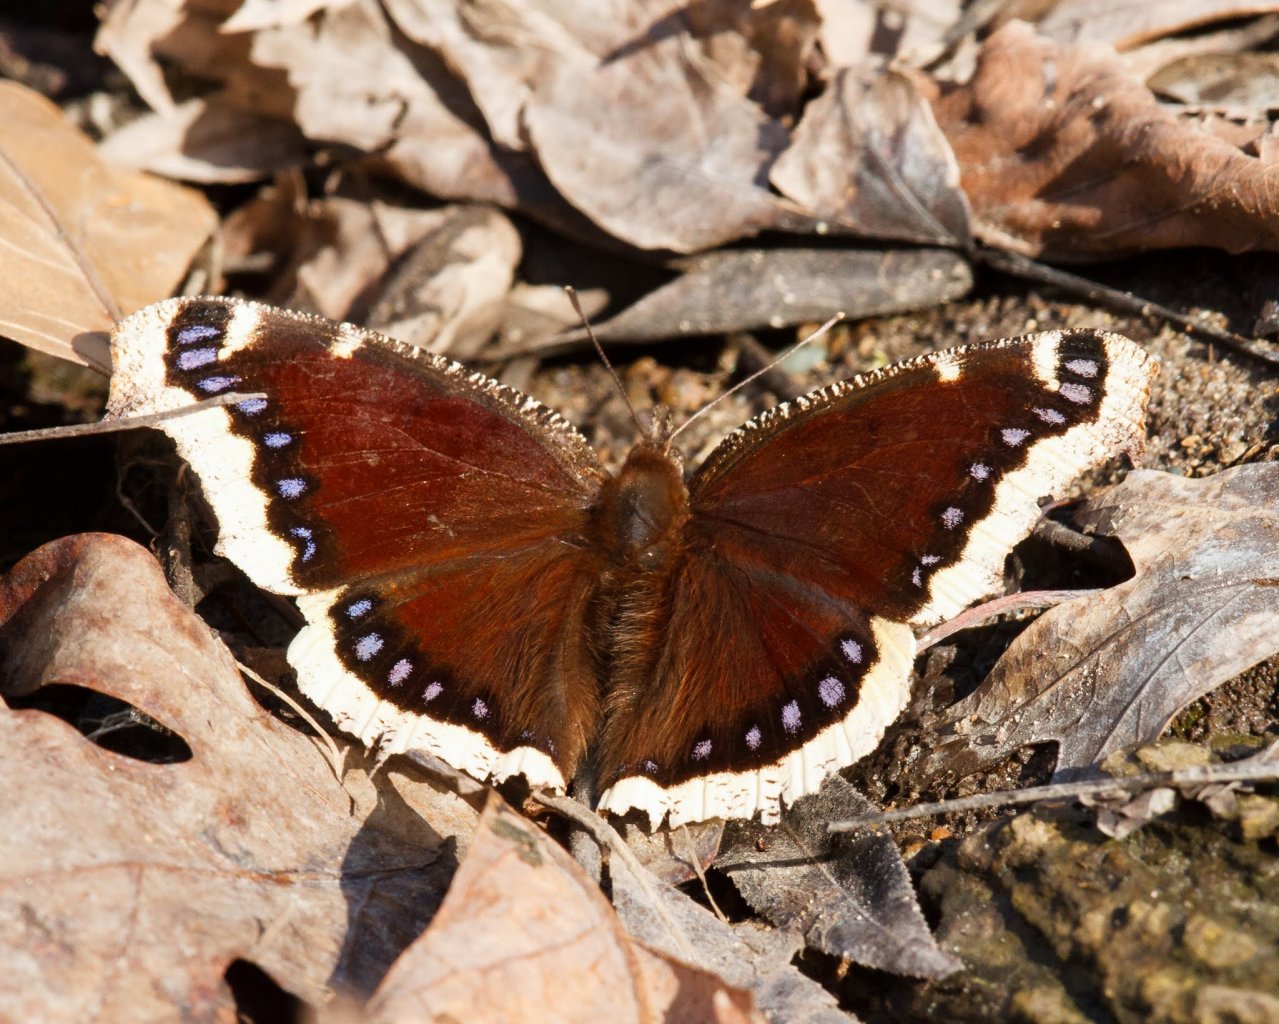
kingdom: Animalia
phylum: Arthropoda
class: Insecta
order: Lepidoptera
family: Nymphalidae
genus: Nymphalis
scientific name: Nymphalis antiopa
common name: Mourning Cloak
